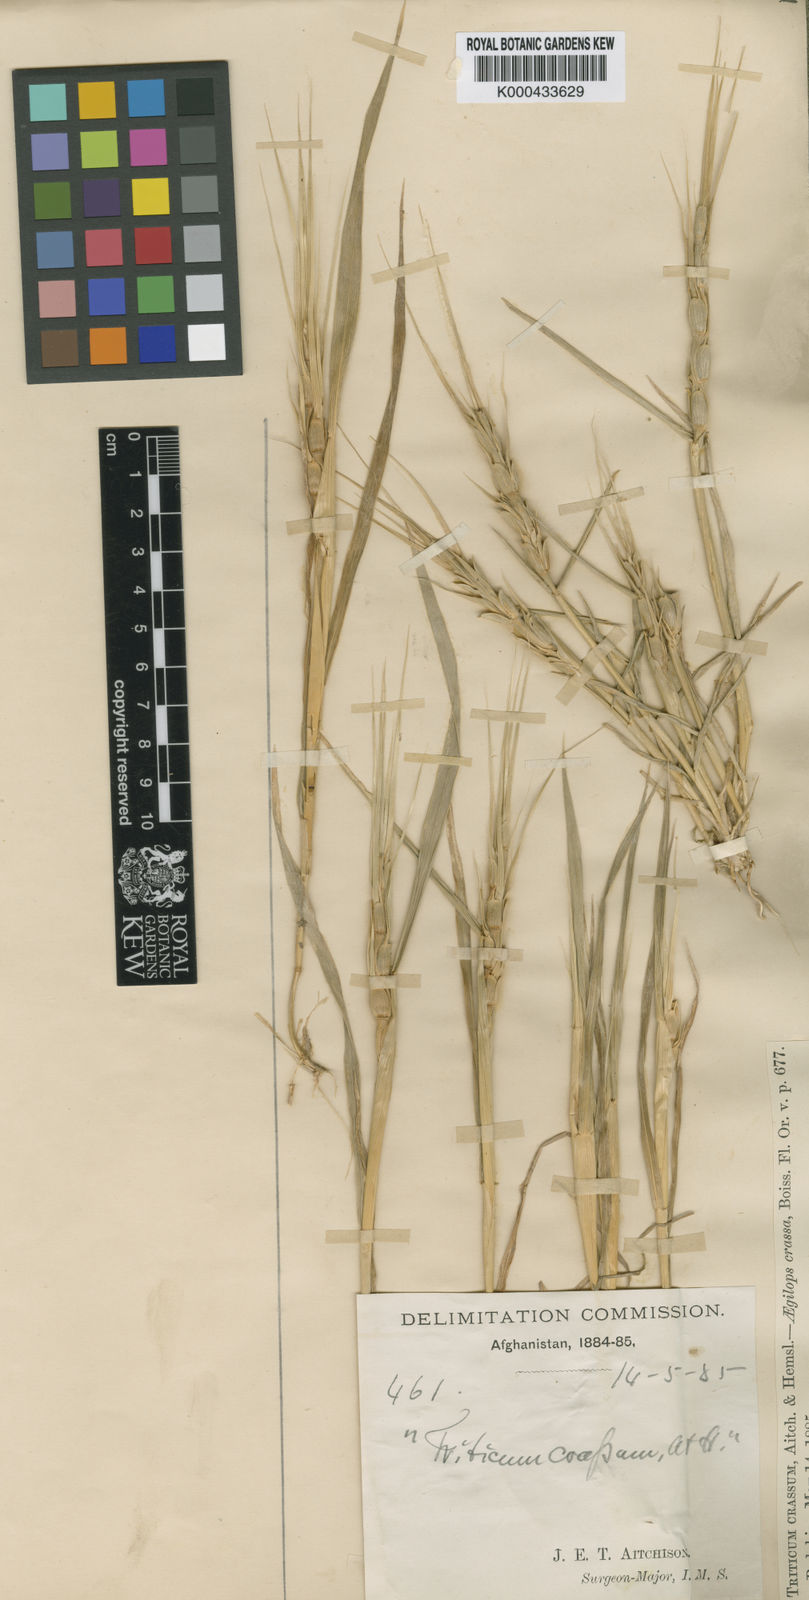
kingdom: Plantae
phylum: Tracheophyta
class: Liliopsida
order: Poales
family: Poaceae
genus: Aegilops
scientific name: Aegilops
